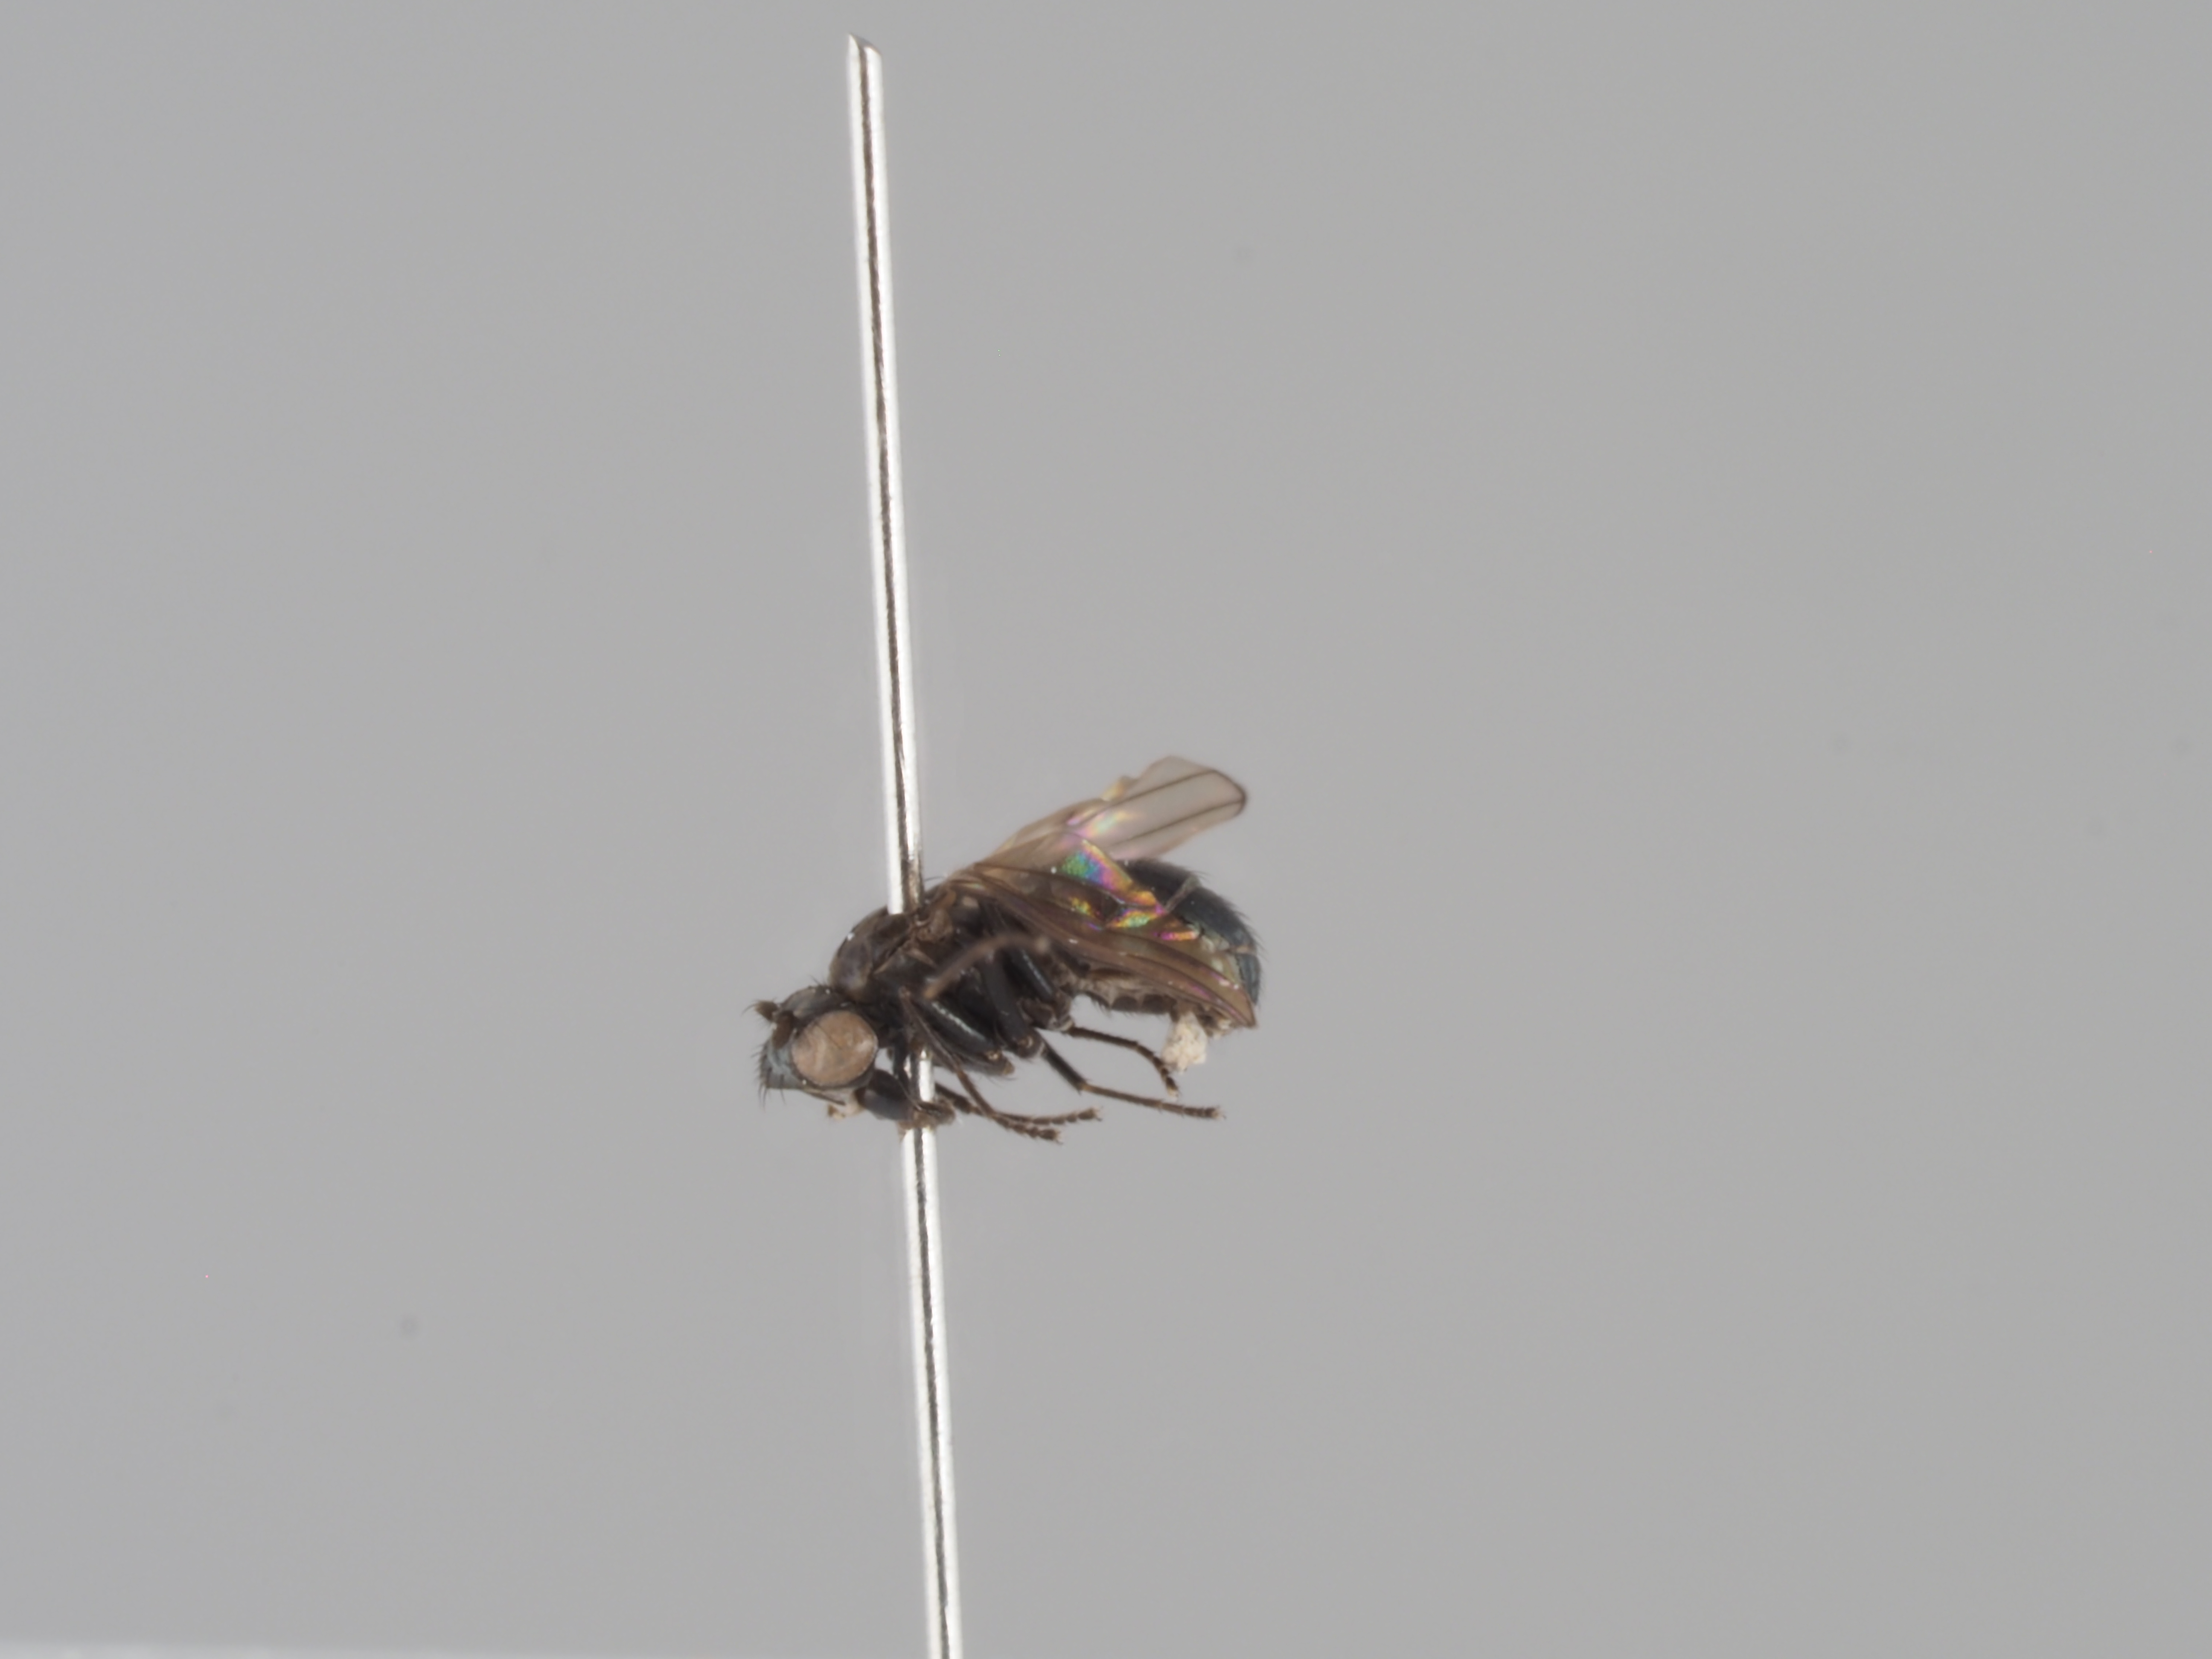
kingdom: Animalia
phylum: Arthropoda
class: Insecta
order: Diptera
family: Ephydridae
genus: Philotelma
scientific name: Philotelma nigripenne
